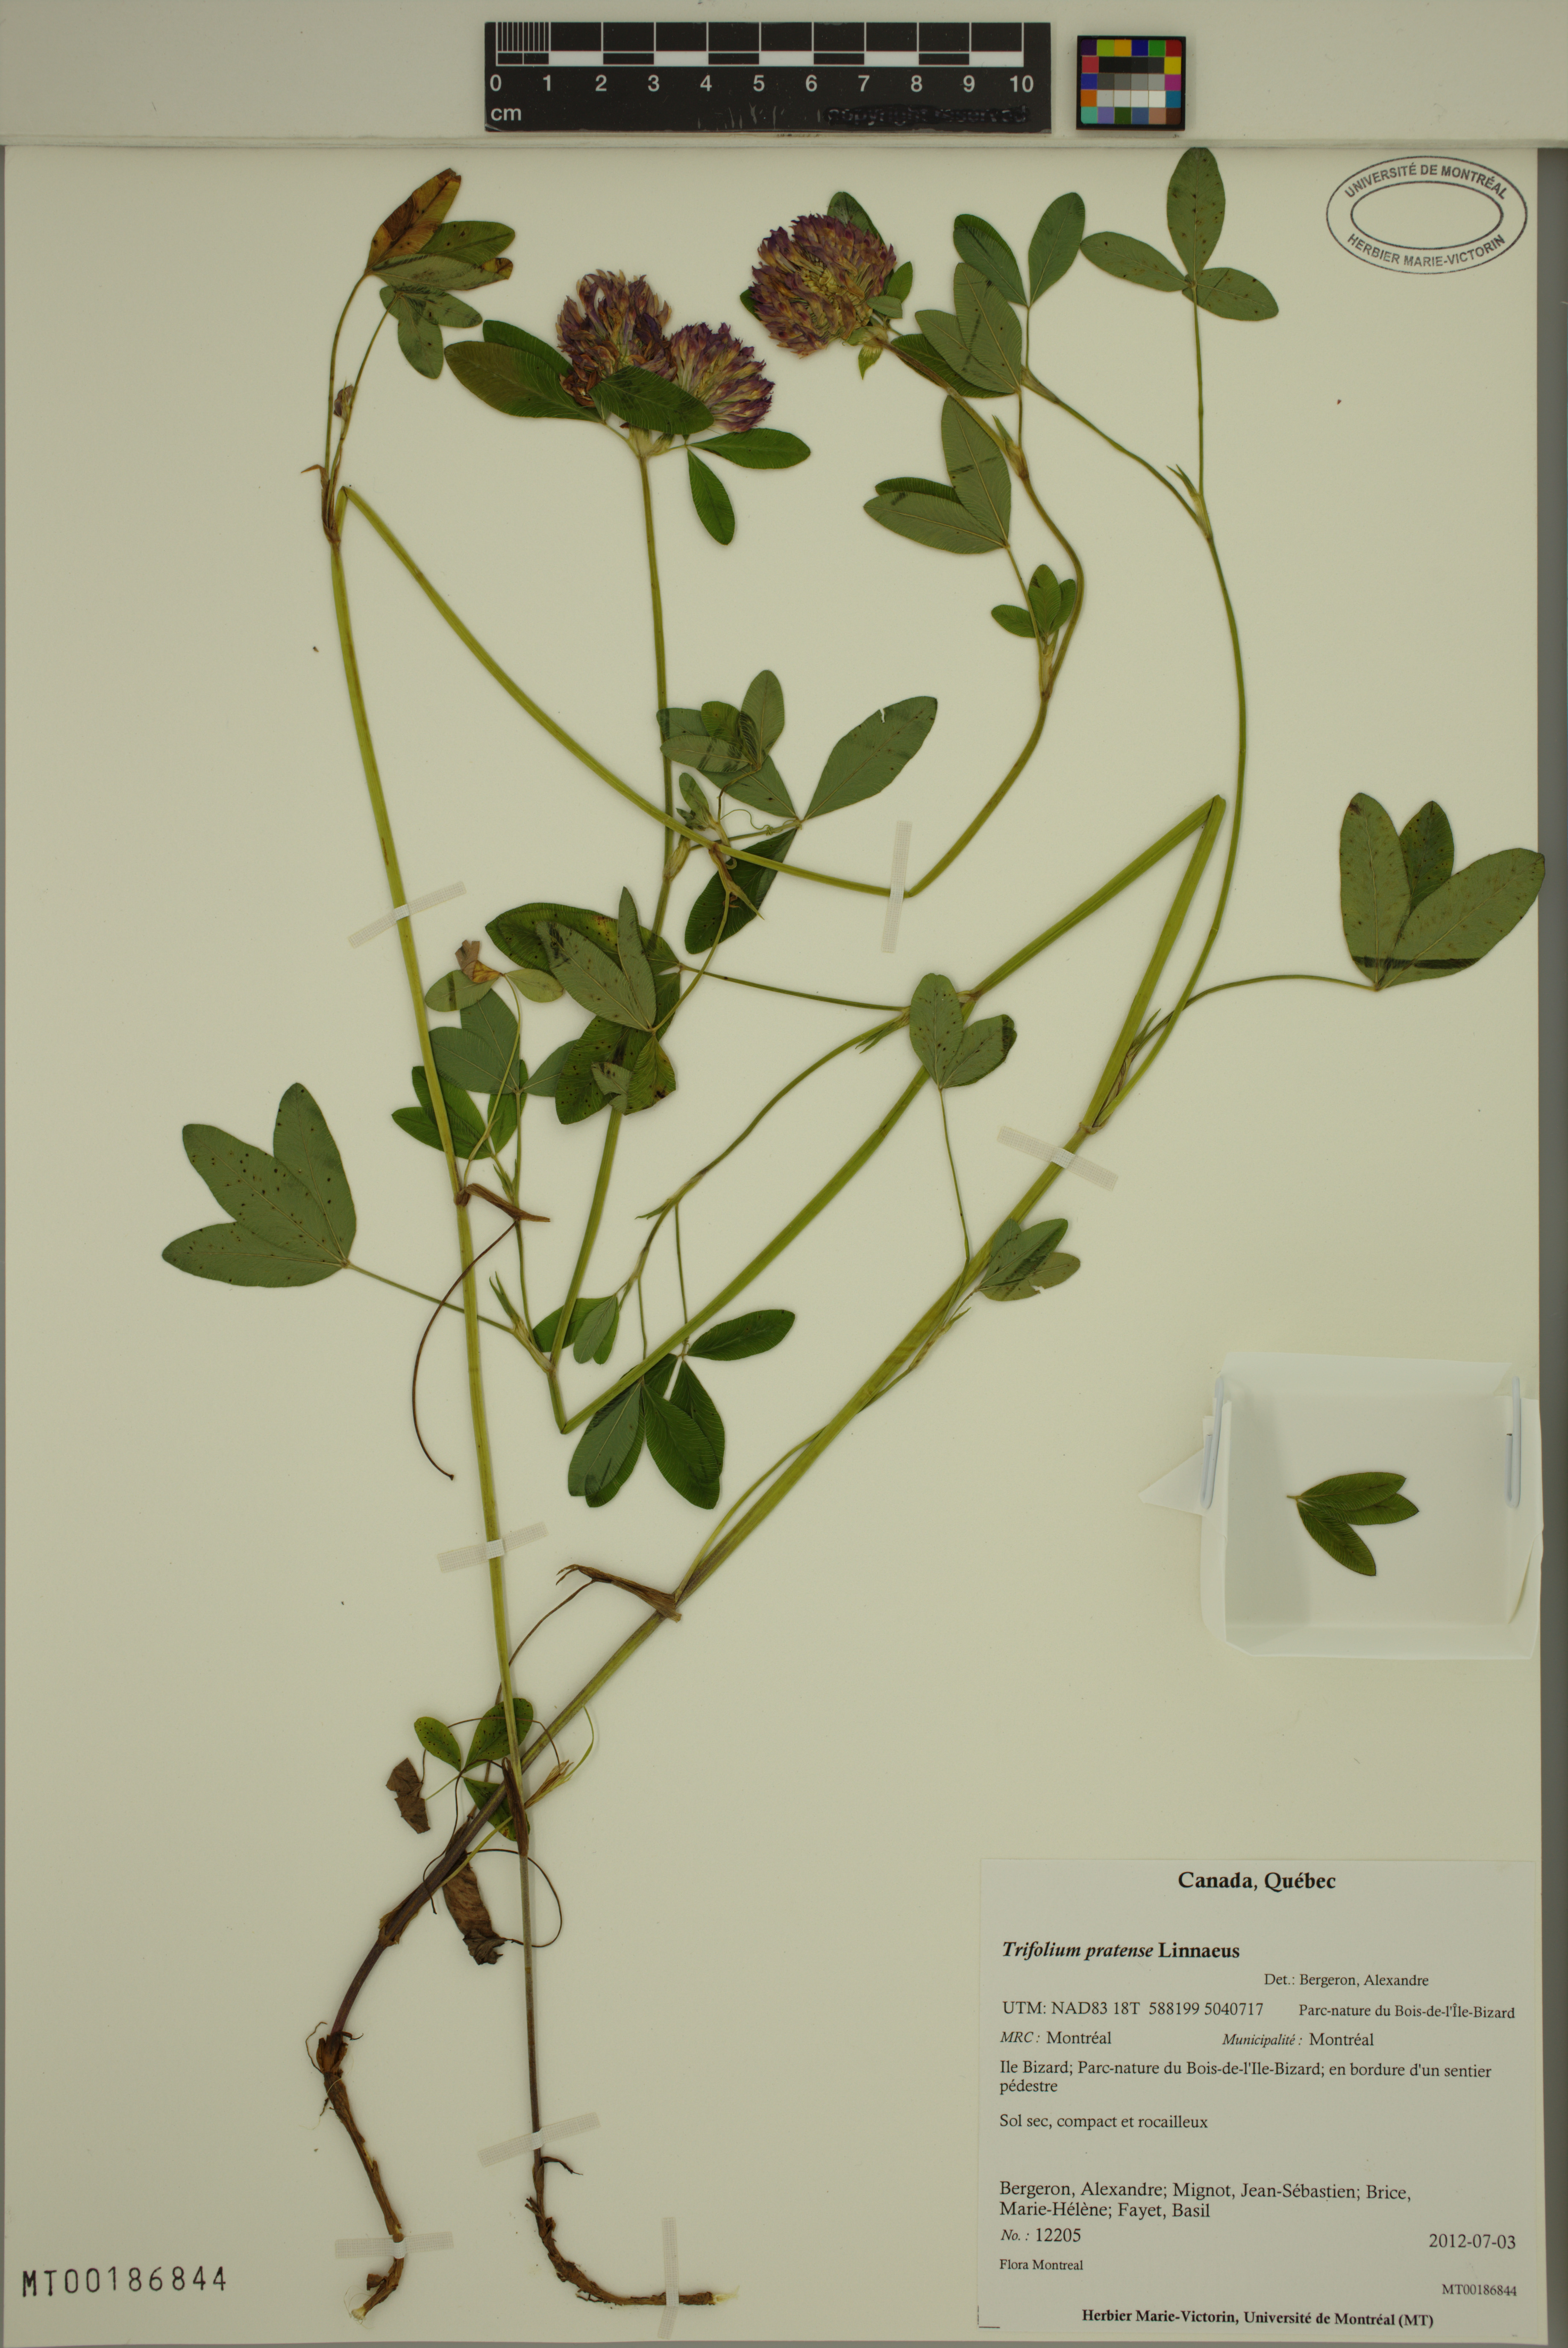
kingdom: Plantae
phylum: Tracheophyta
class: Magnoliopsida
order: Fabales
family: Fabaceae
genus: Trifolium
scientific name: Trifolium pratense
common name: Red clover
